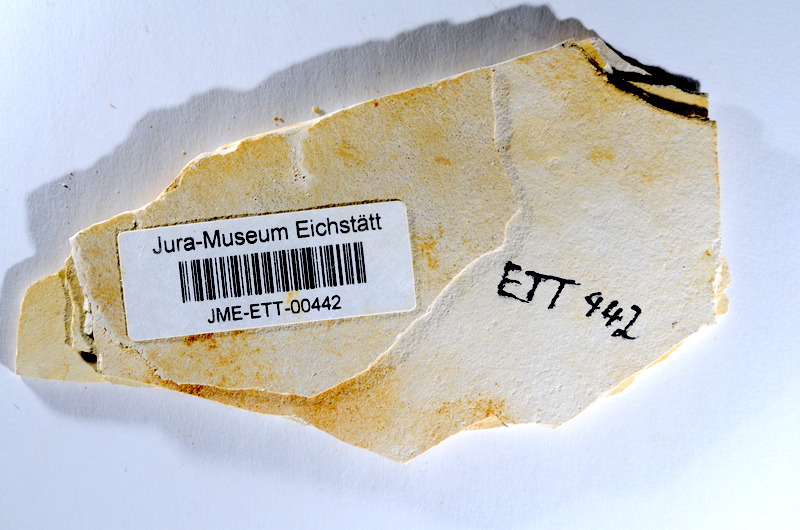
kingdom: Animalia
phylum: Chordata
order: Salmoniformes
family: Orthogonikleithridae
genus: Orthogonikleithrus
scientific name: Orthogonikleithrus hoelli
